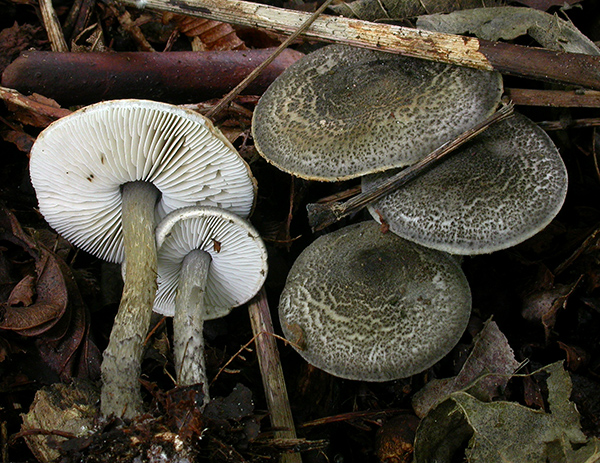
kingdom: Fungi
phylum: Basidiomycota
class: Agaricomycetes
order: Agaricales
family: Agaricaceae
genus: Lepiota
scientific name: Lepiota griseovirens
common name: grågrøn parasolhat
